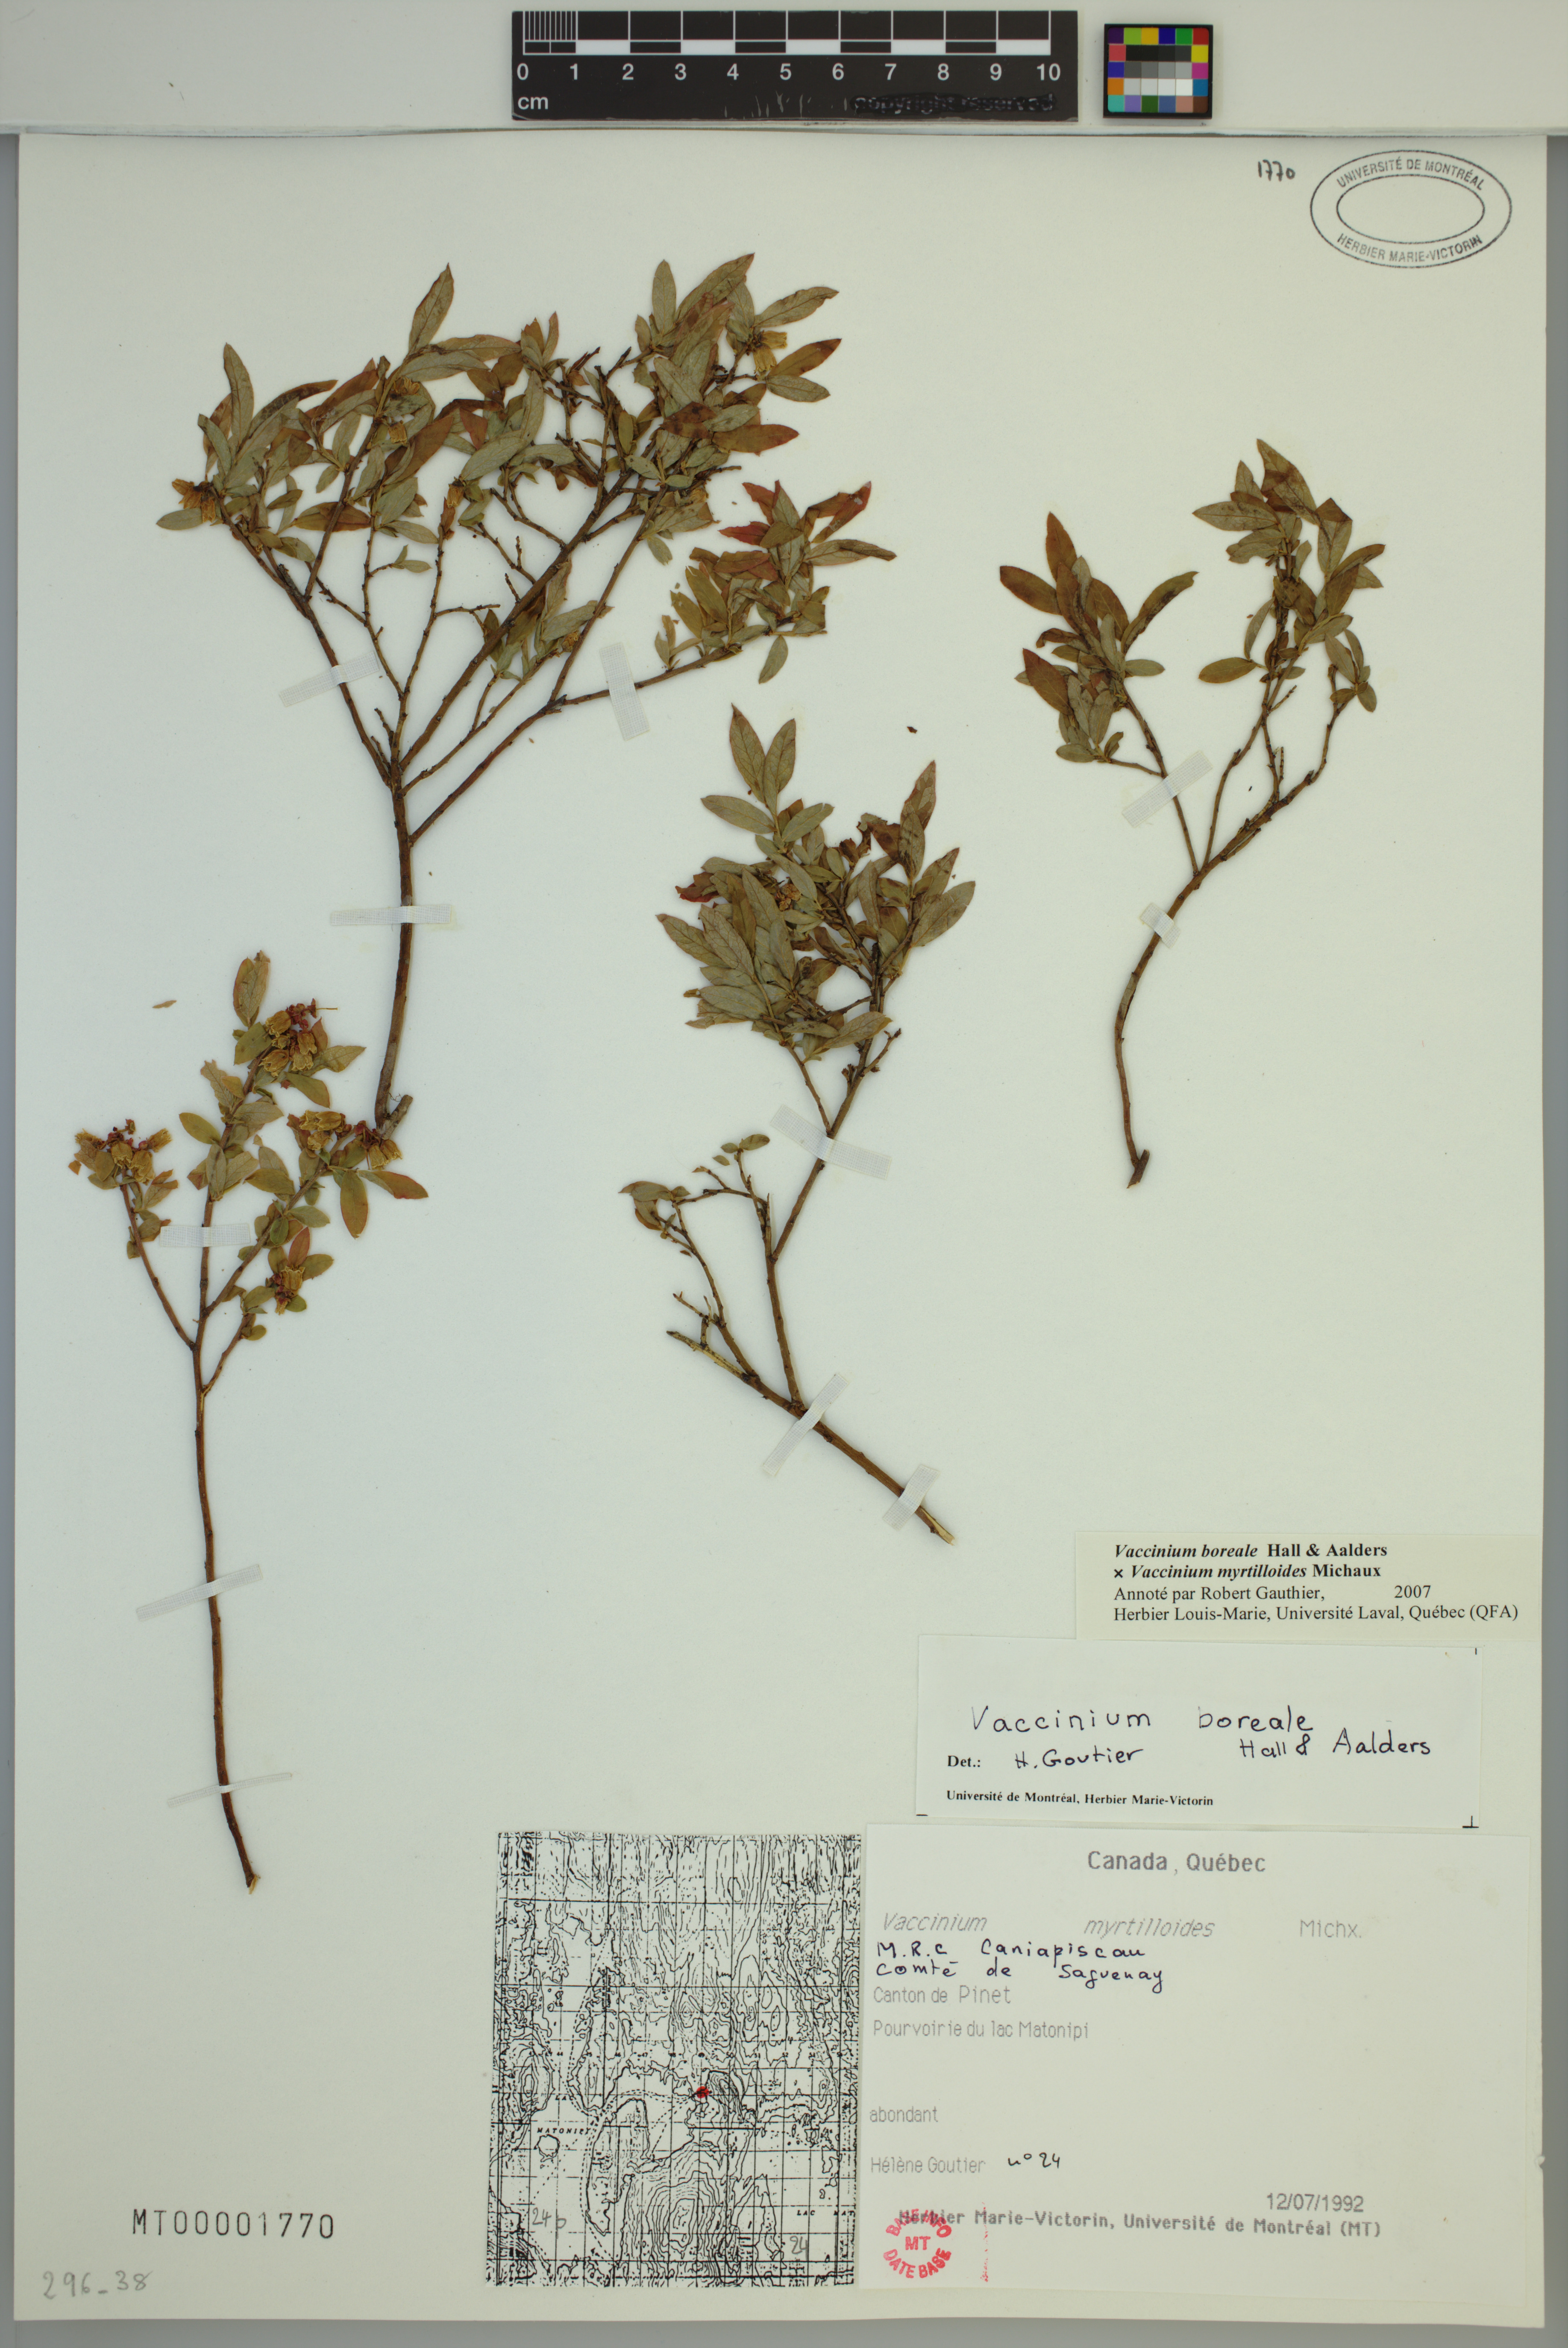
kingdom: Plantae
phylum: Tracheophyta
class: Magnoliopsida
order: Ericales
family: Ericaceae
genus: Vaccinium
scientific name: Vaccinium boreale
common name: Northern blueberry
